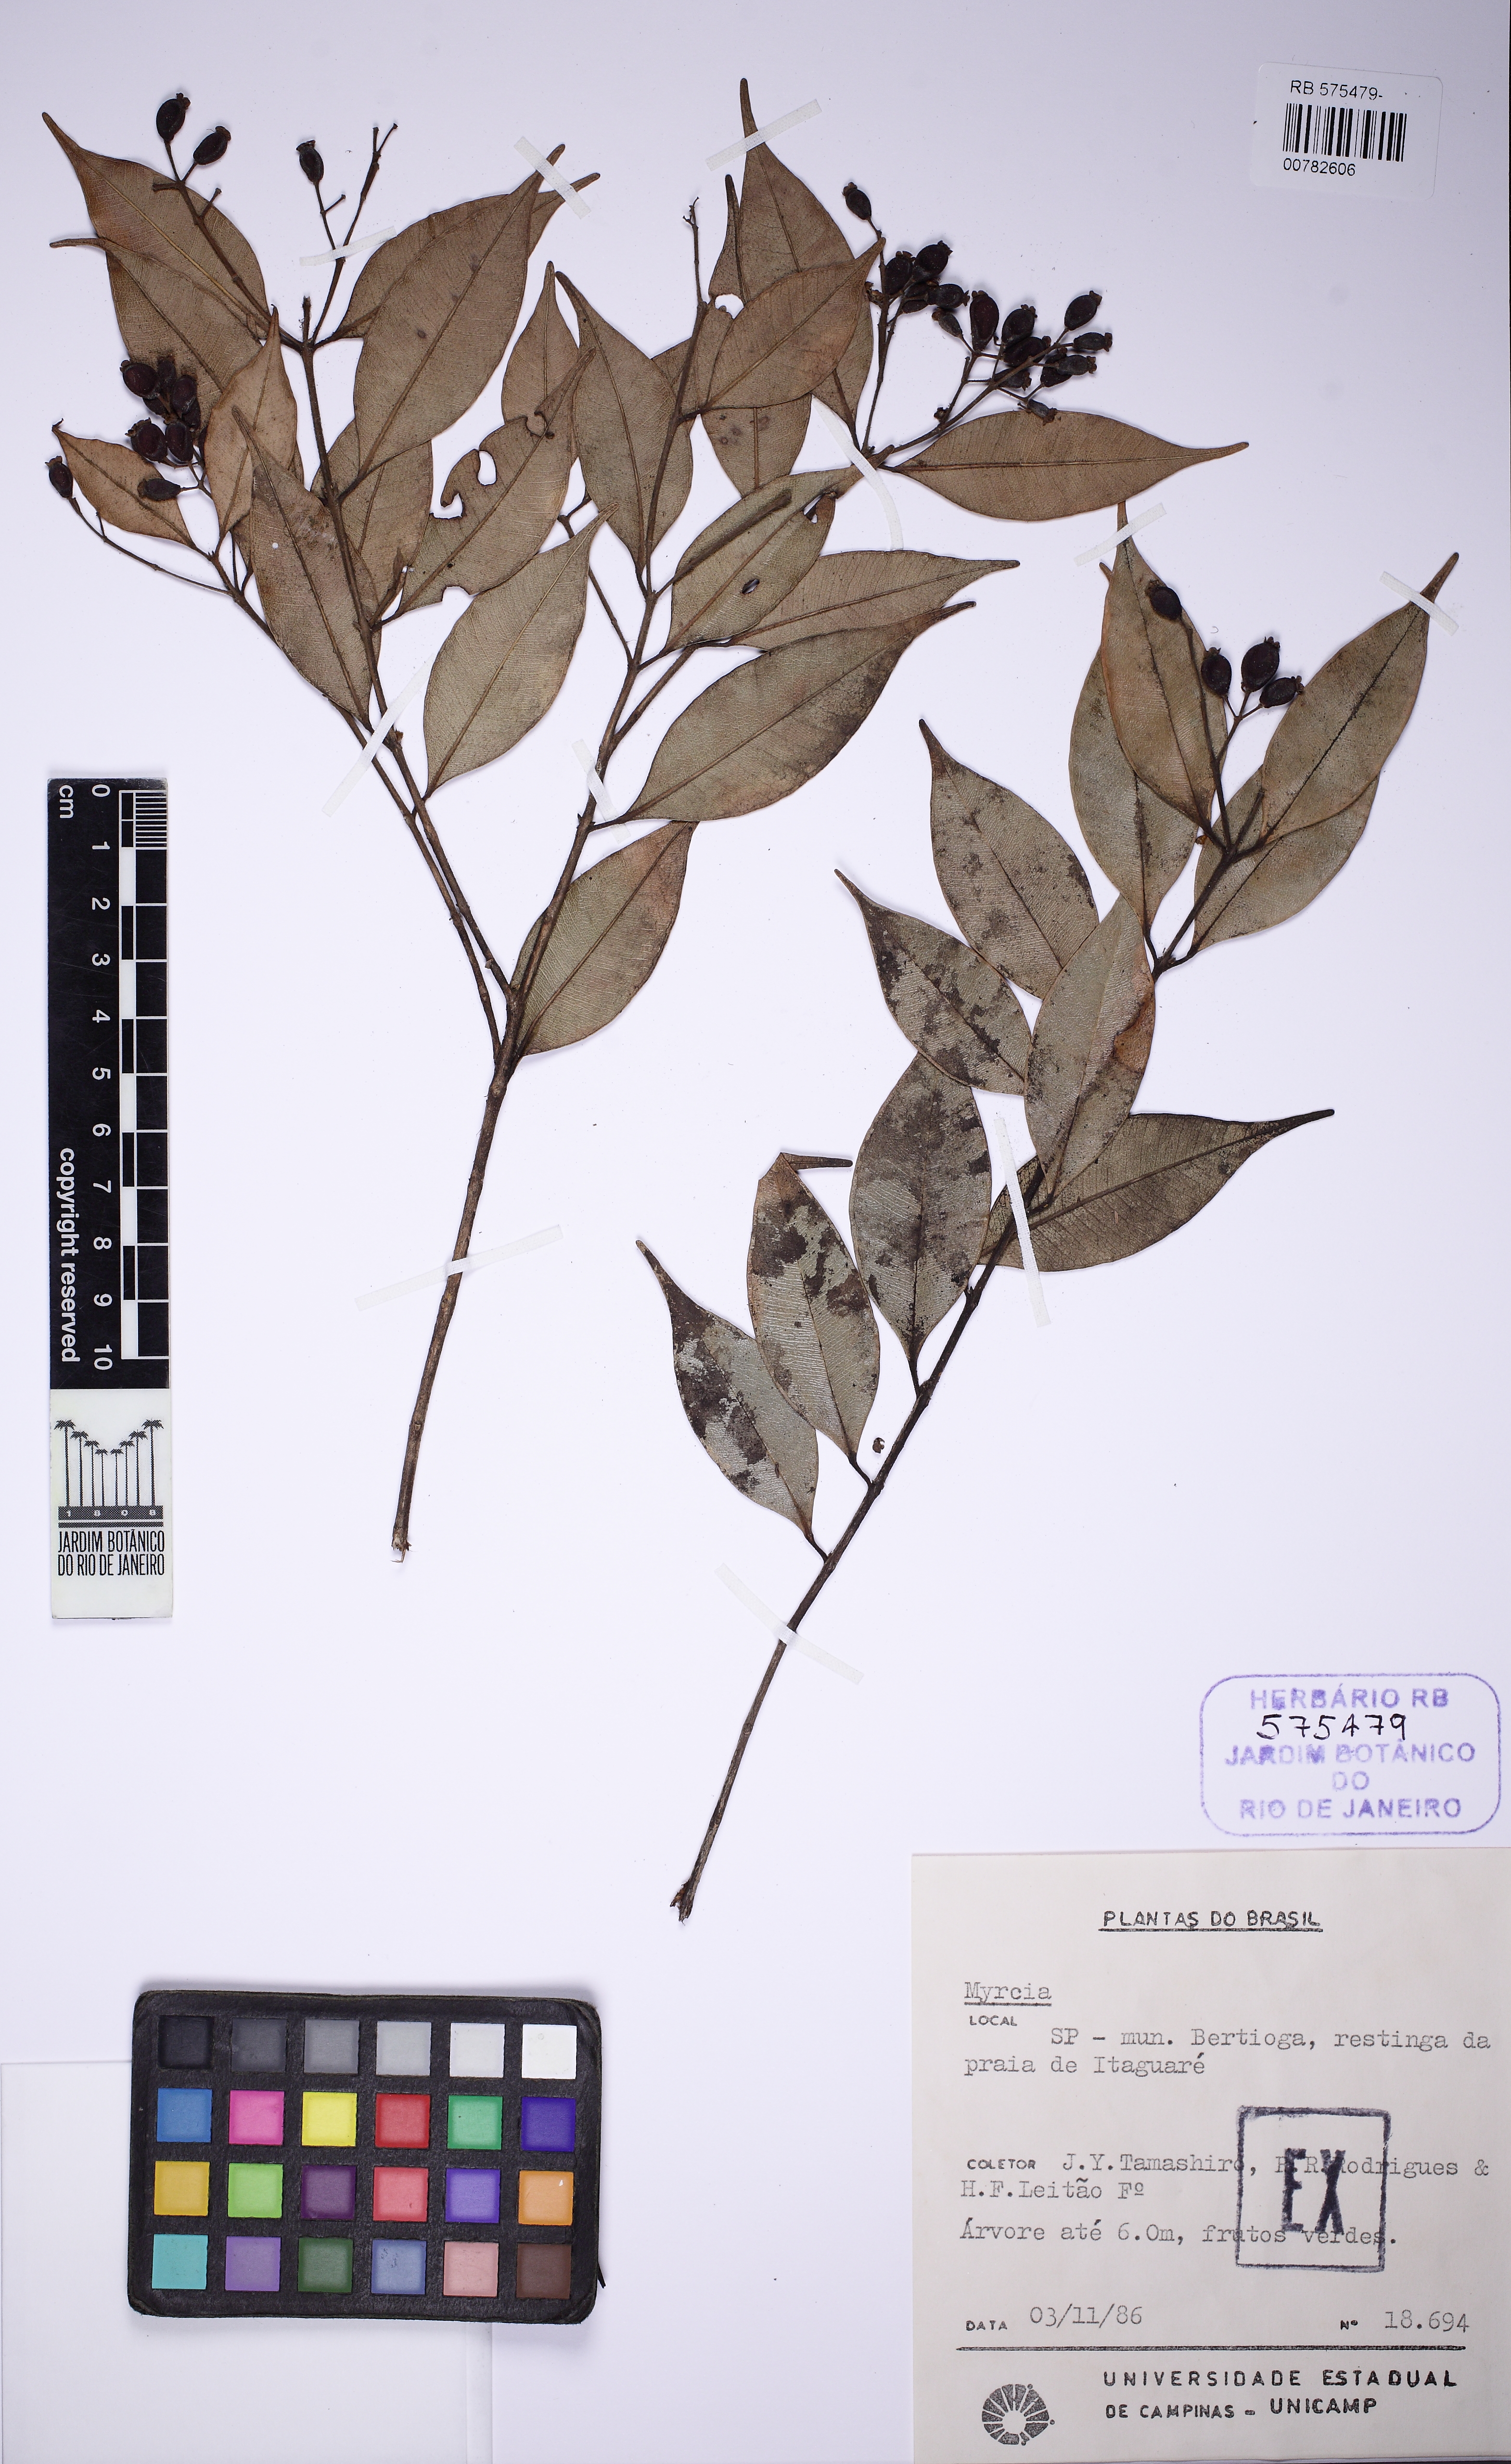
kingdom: Plantae
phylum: Tracheophyta
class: Magnoliopsida
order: Myrtales
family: Myrtaceae
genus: Myrcia
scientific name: Myrcia splendens
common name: Surinam cherry
